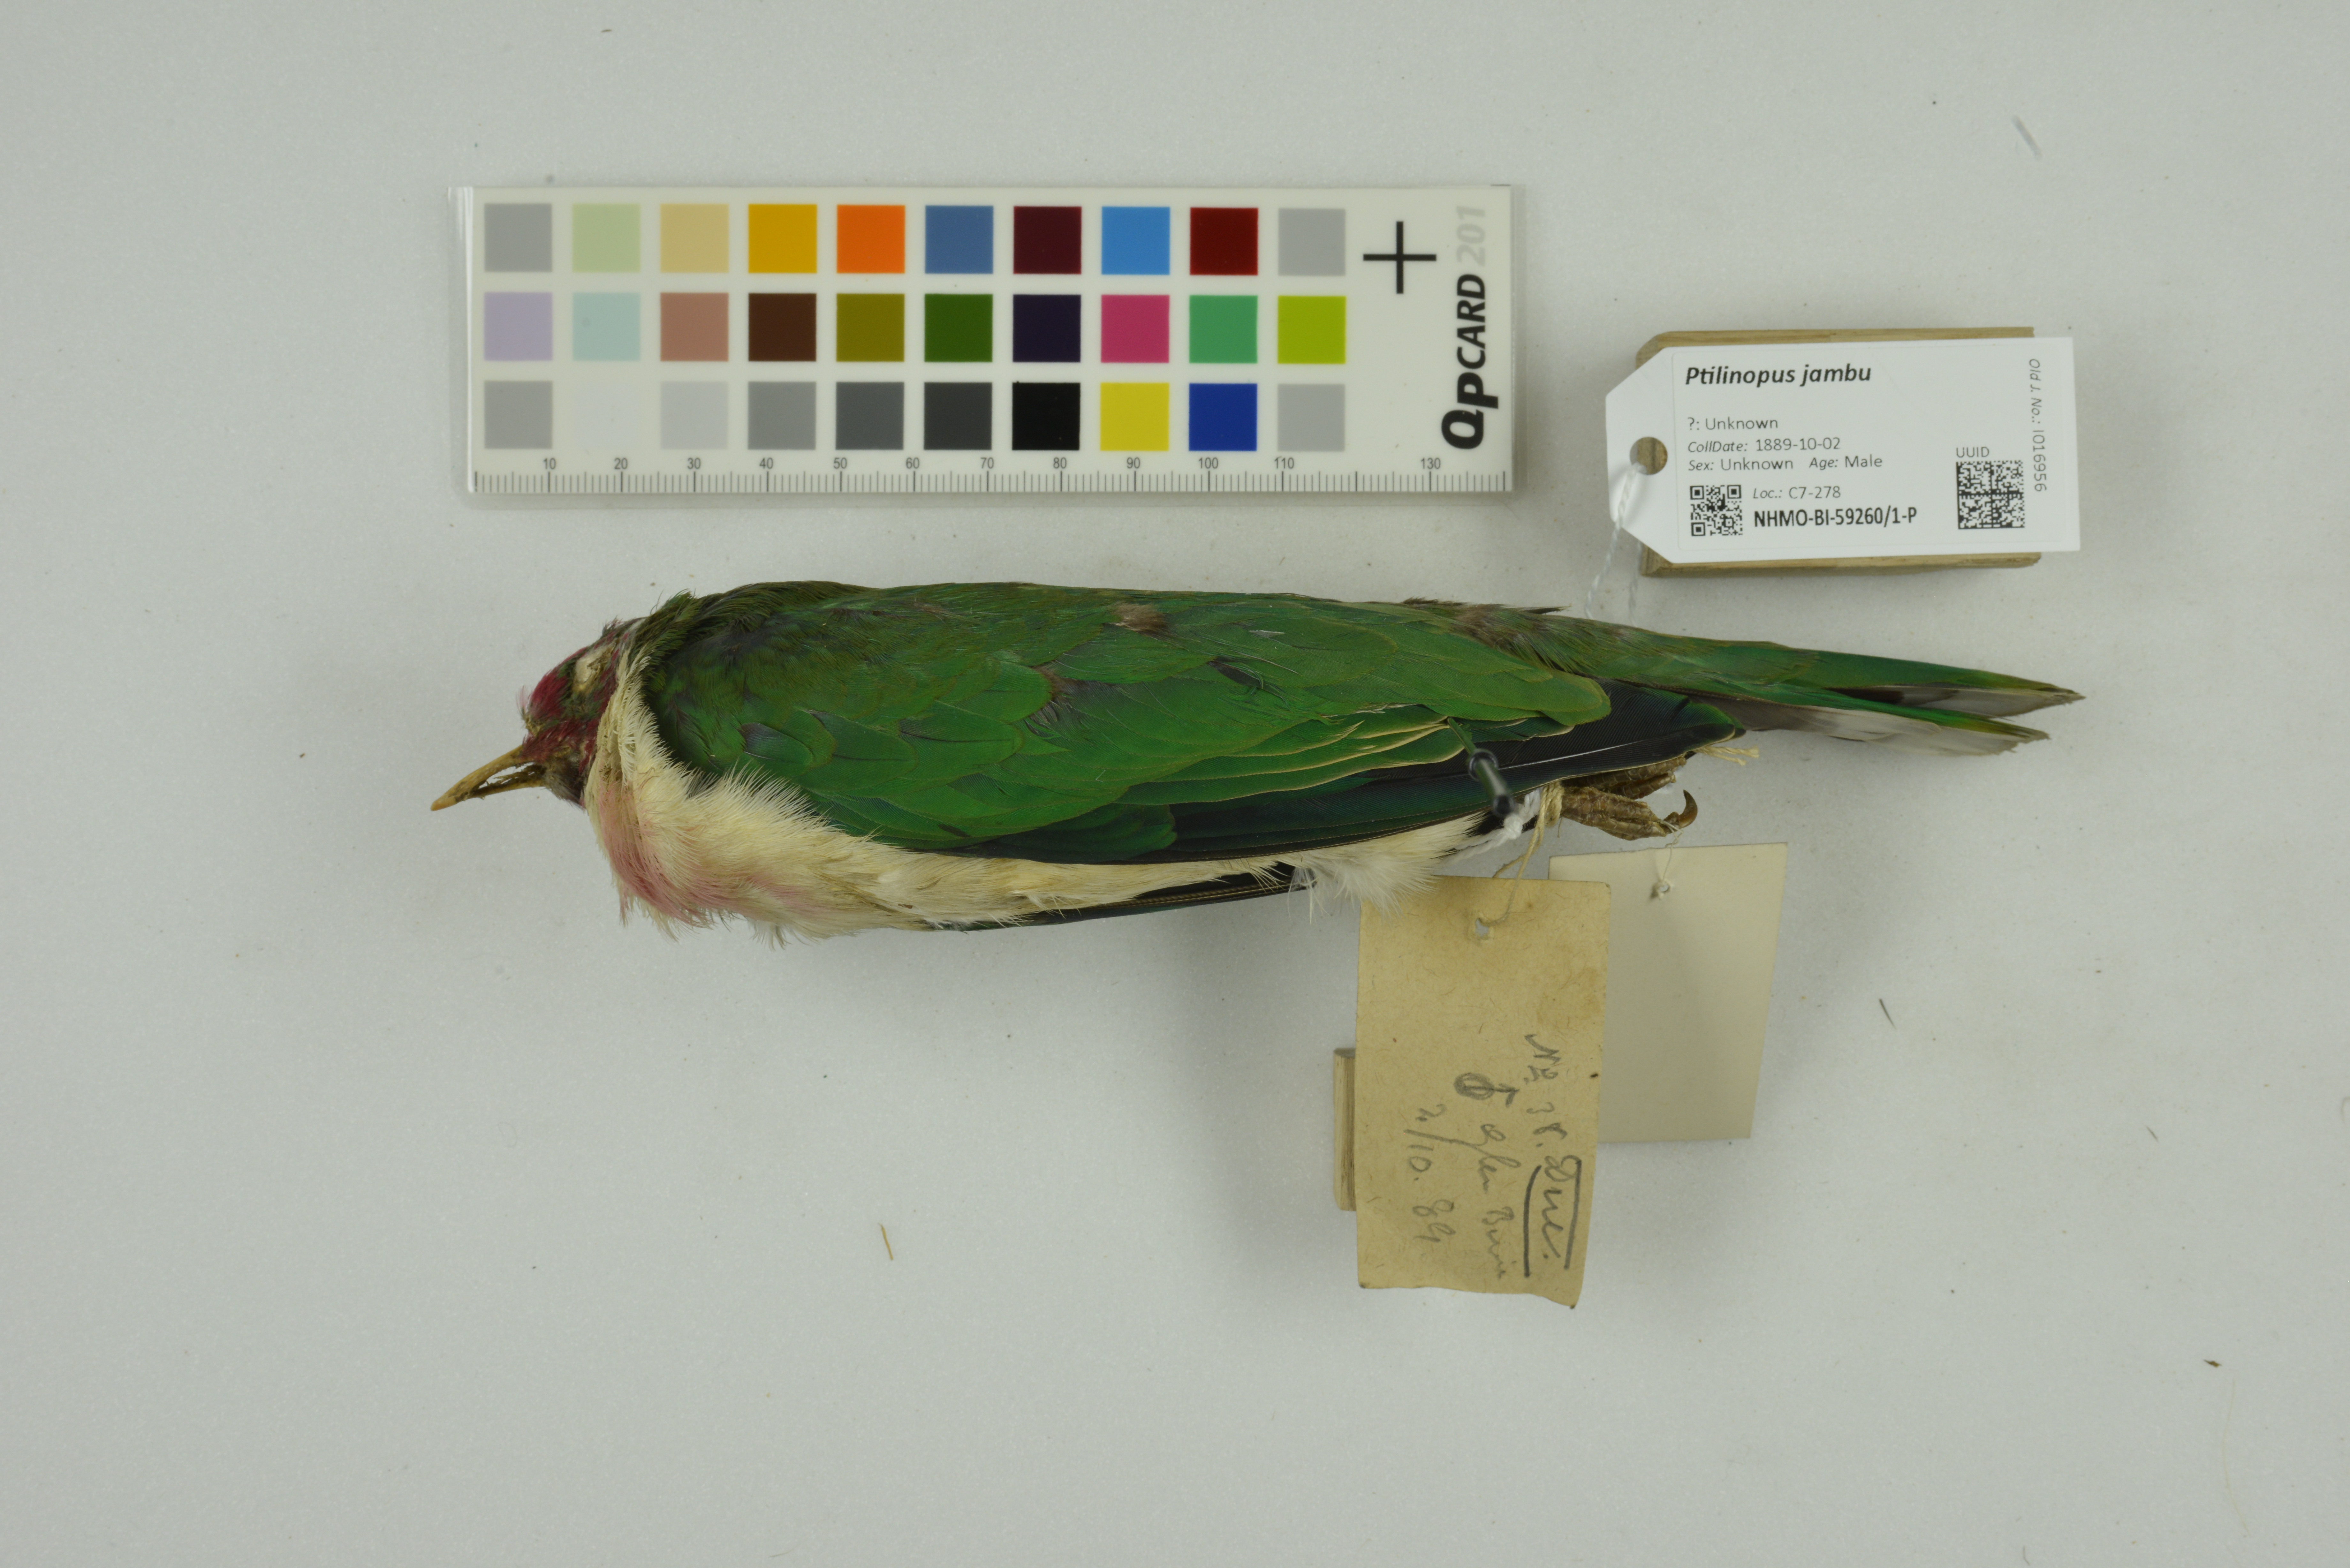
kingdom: Animalia
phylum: Chordata
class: Aves
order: Columbiformes
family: Columbidae
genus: Ptilinopus
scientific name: Ptilinopus jambu
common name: Jambu fruit dove
